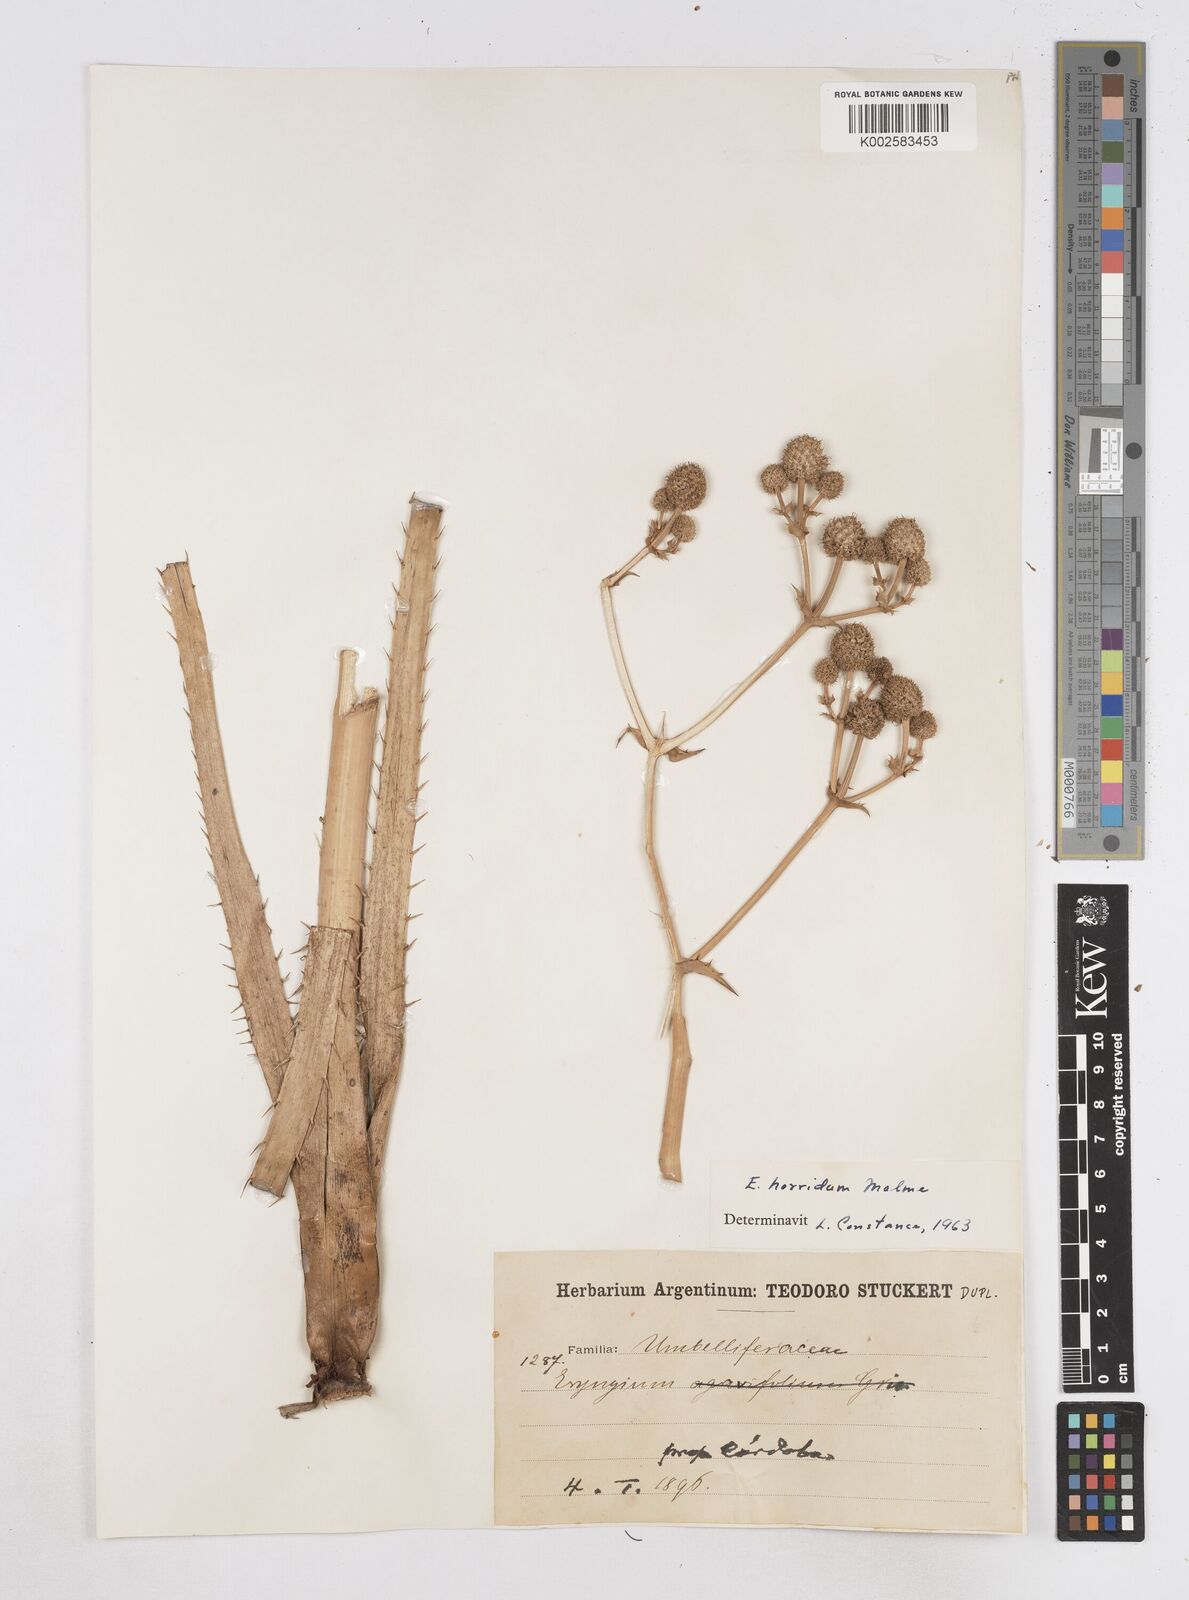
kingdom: Plantae
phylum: Tracheophyta
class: Magnoliopsida
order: Apiales
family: Apiaceae
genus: Eryngium
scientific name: Eryngium horridum
